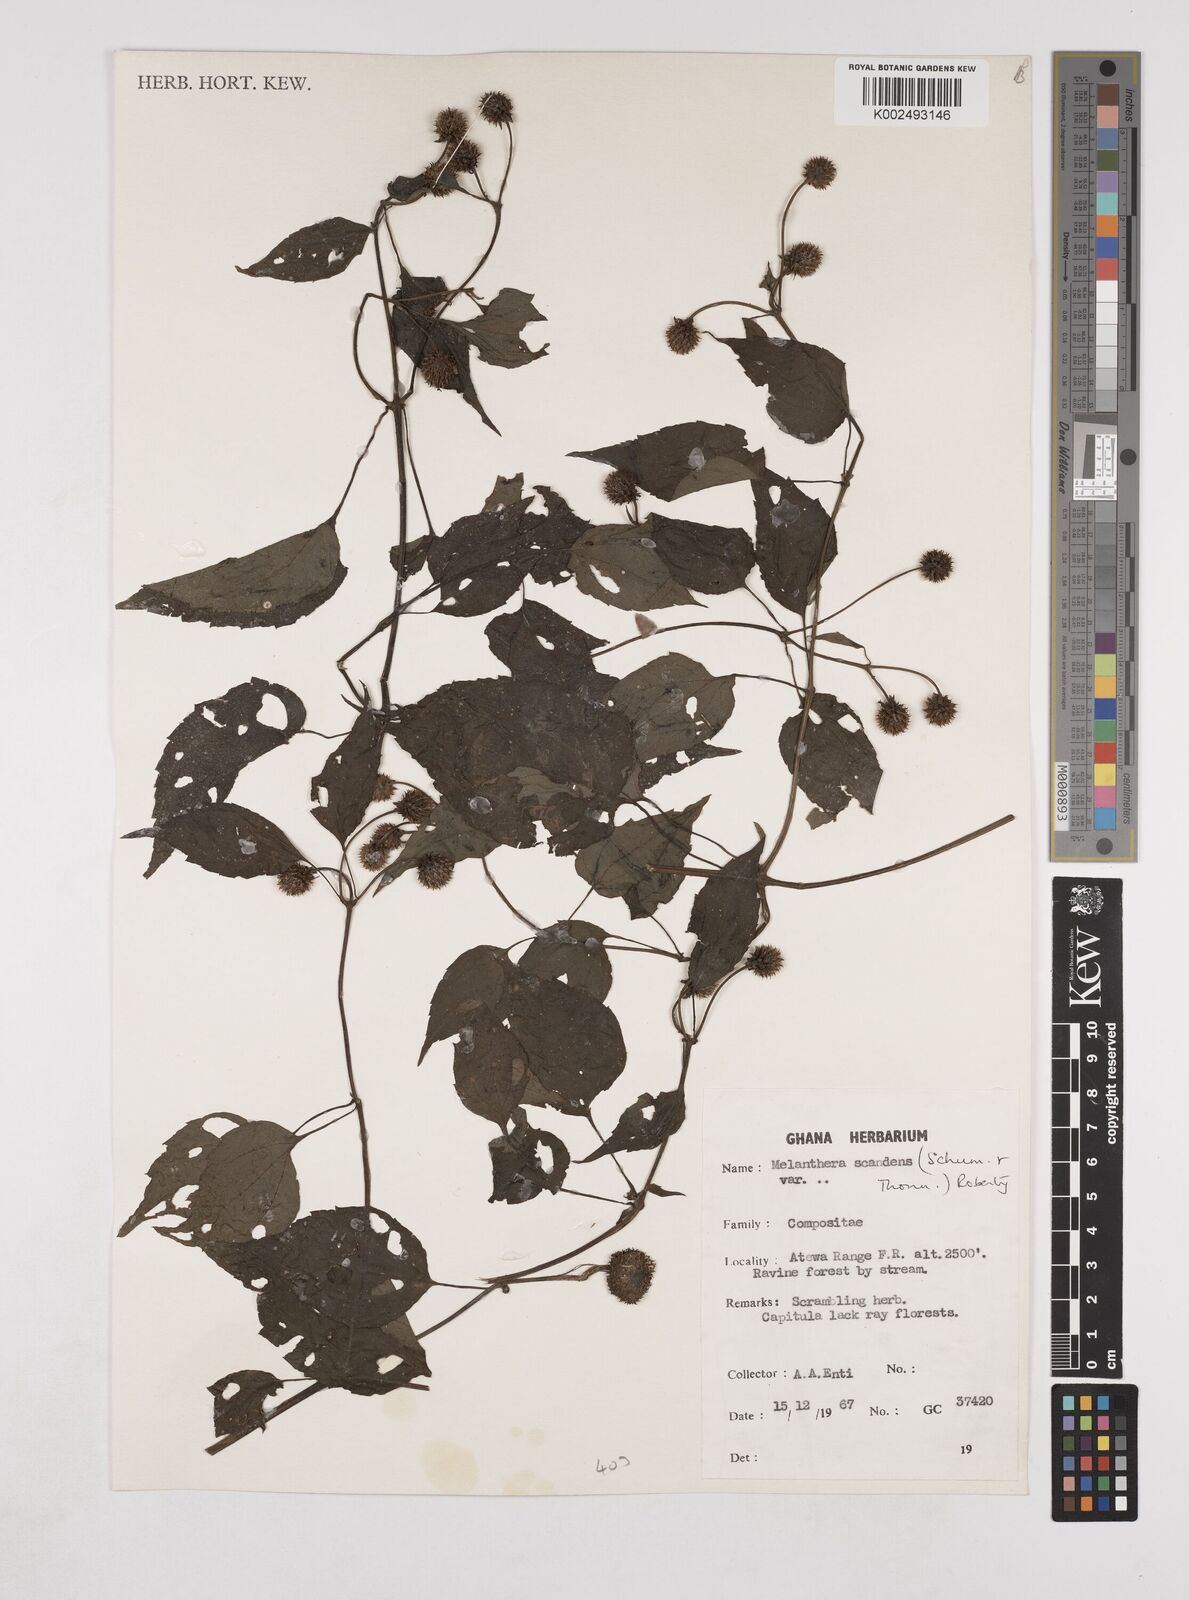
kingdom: Plantae
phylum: Tracheophyta
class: Magnoliopsida
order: Asterales
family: Asteraceae
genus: Lipotriche
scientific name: Lipotriche scandens
